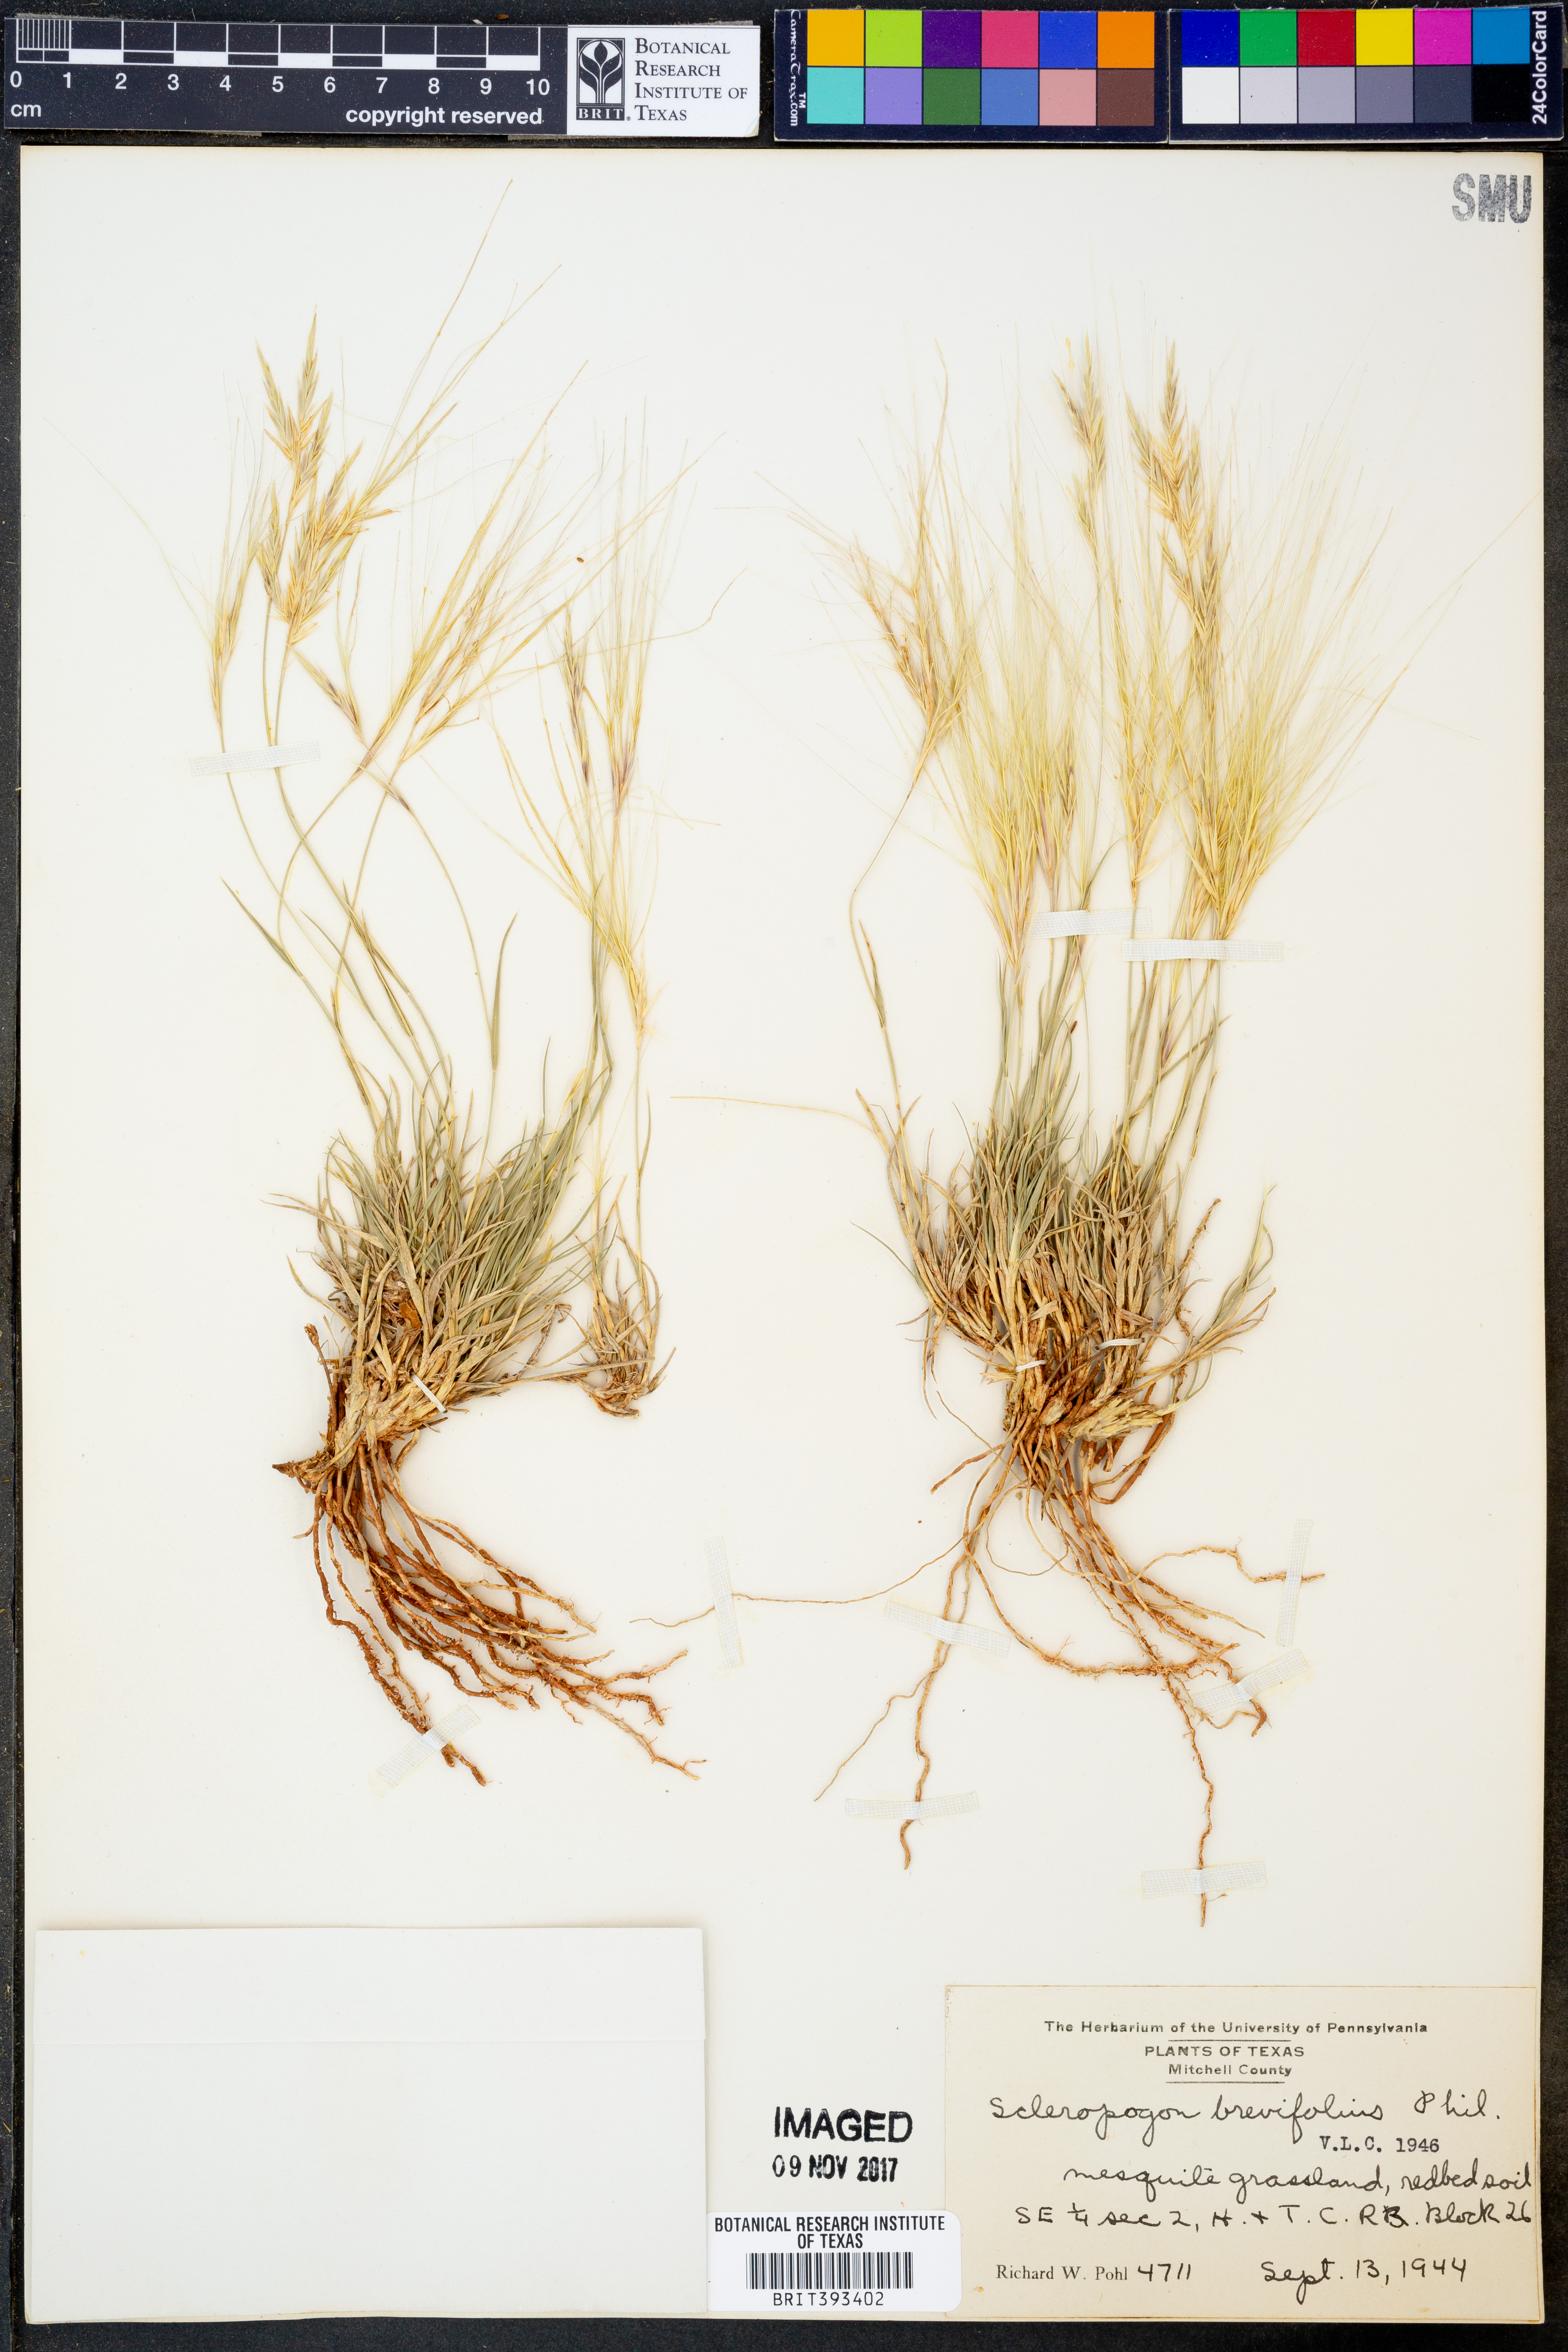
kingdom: Plantae
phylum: Tracheophyta
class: Liliopsida
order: Poales
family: Poaceae
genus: Scleropogon
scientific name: Scleropogon brevifolius
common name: Burro grass
